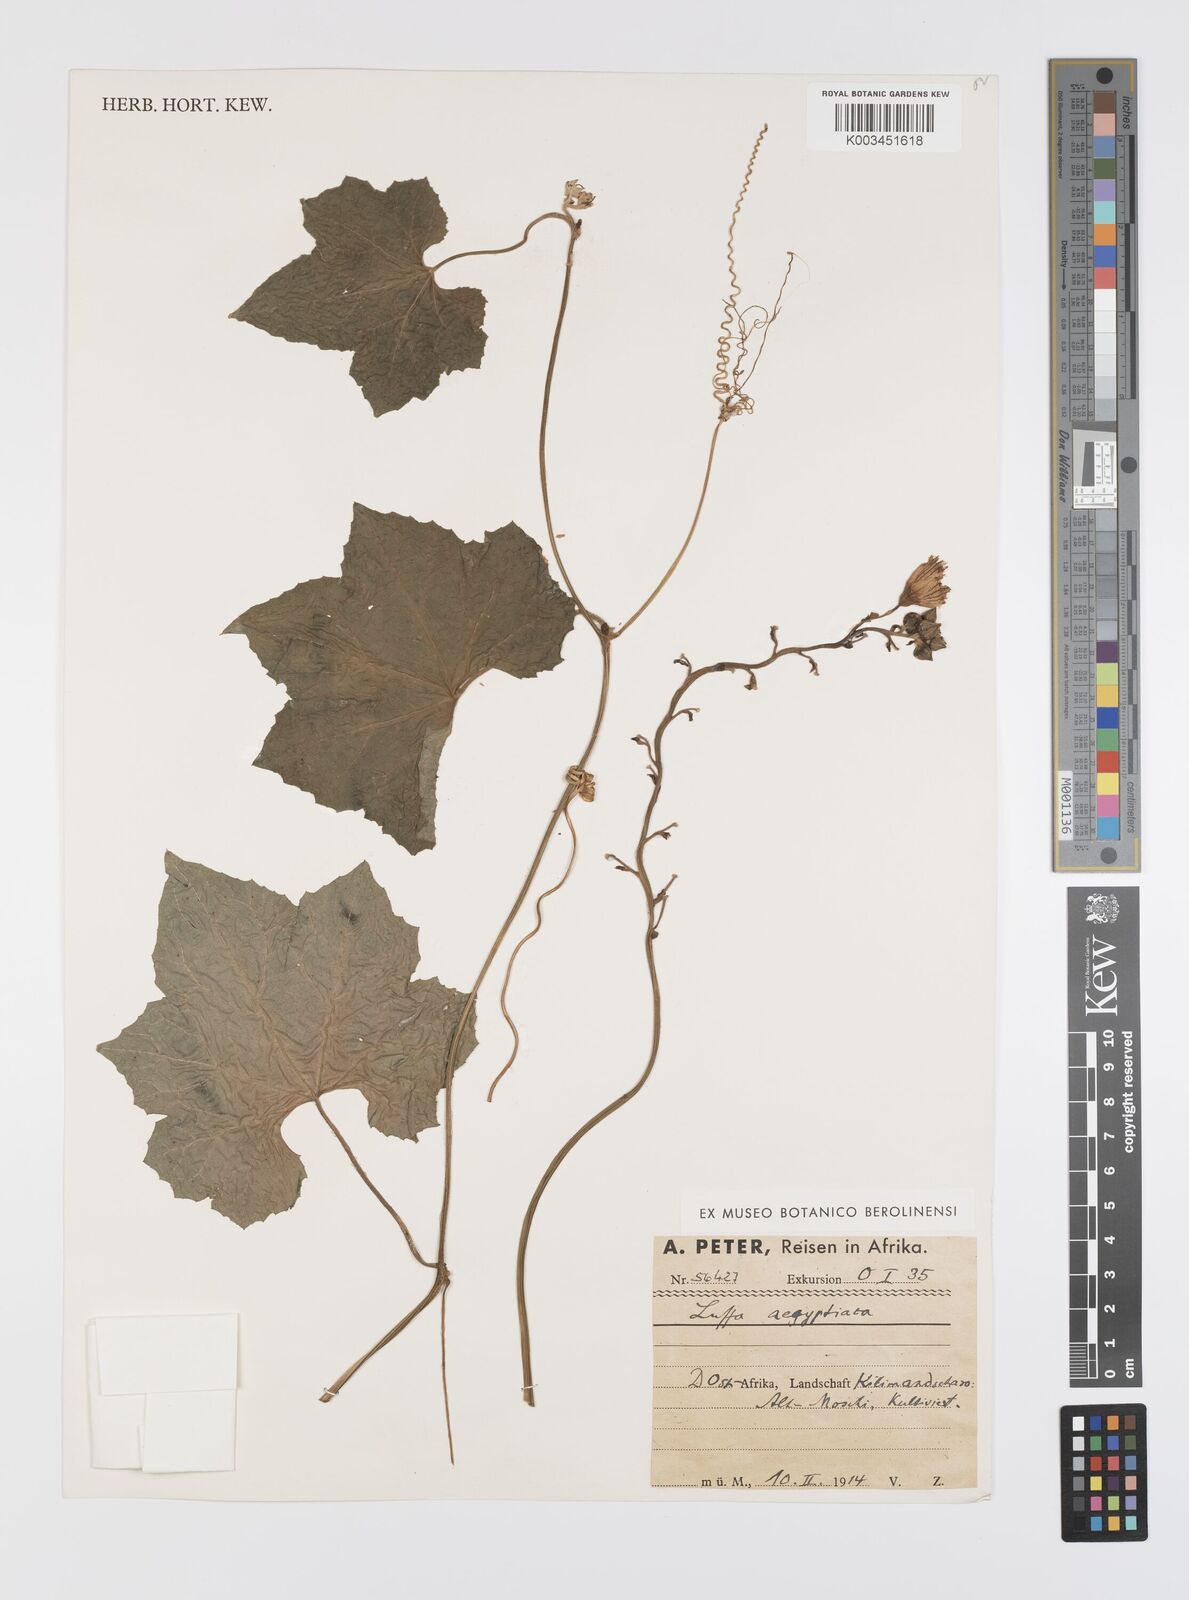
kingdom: Plantae
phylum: Tracheophyta
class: Magnoliopsida
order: Cucurbitales
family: Cucurbitaceae
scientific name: Cucurbitaceae
